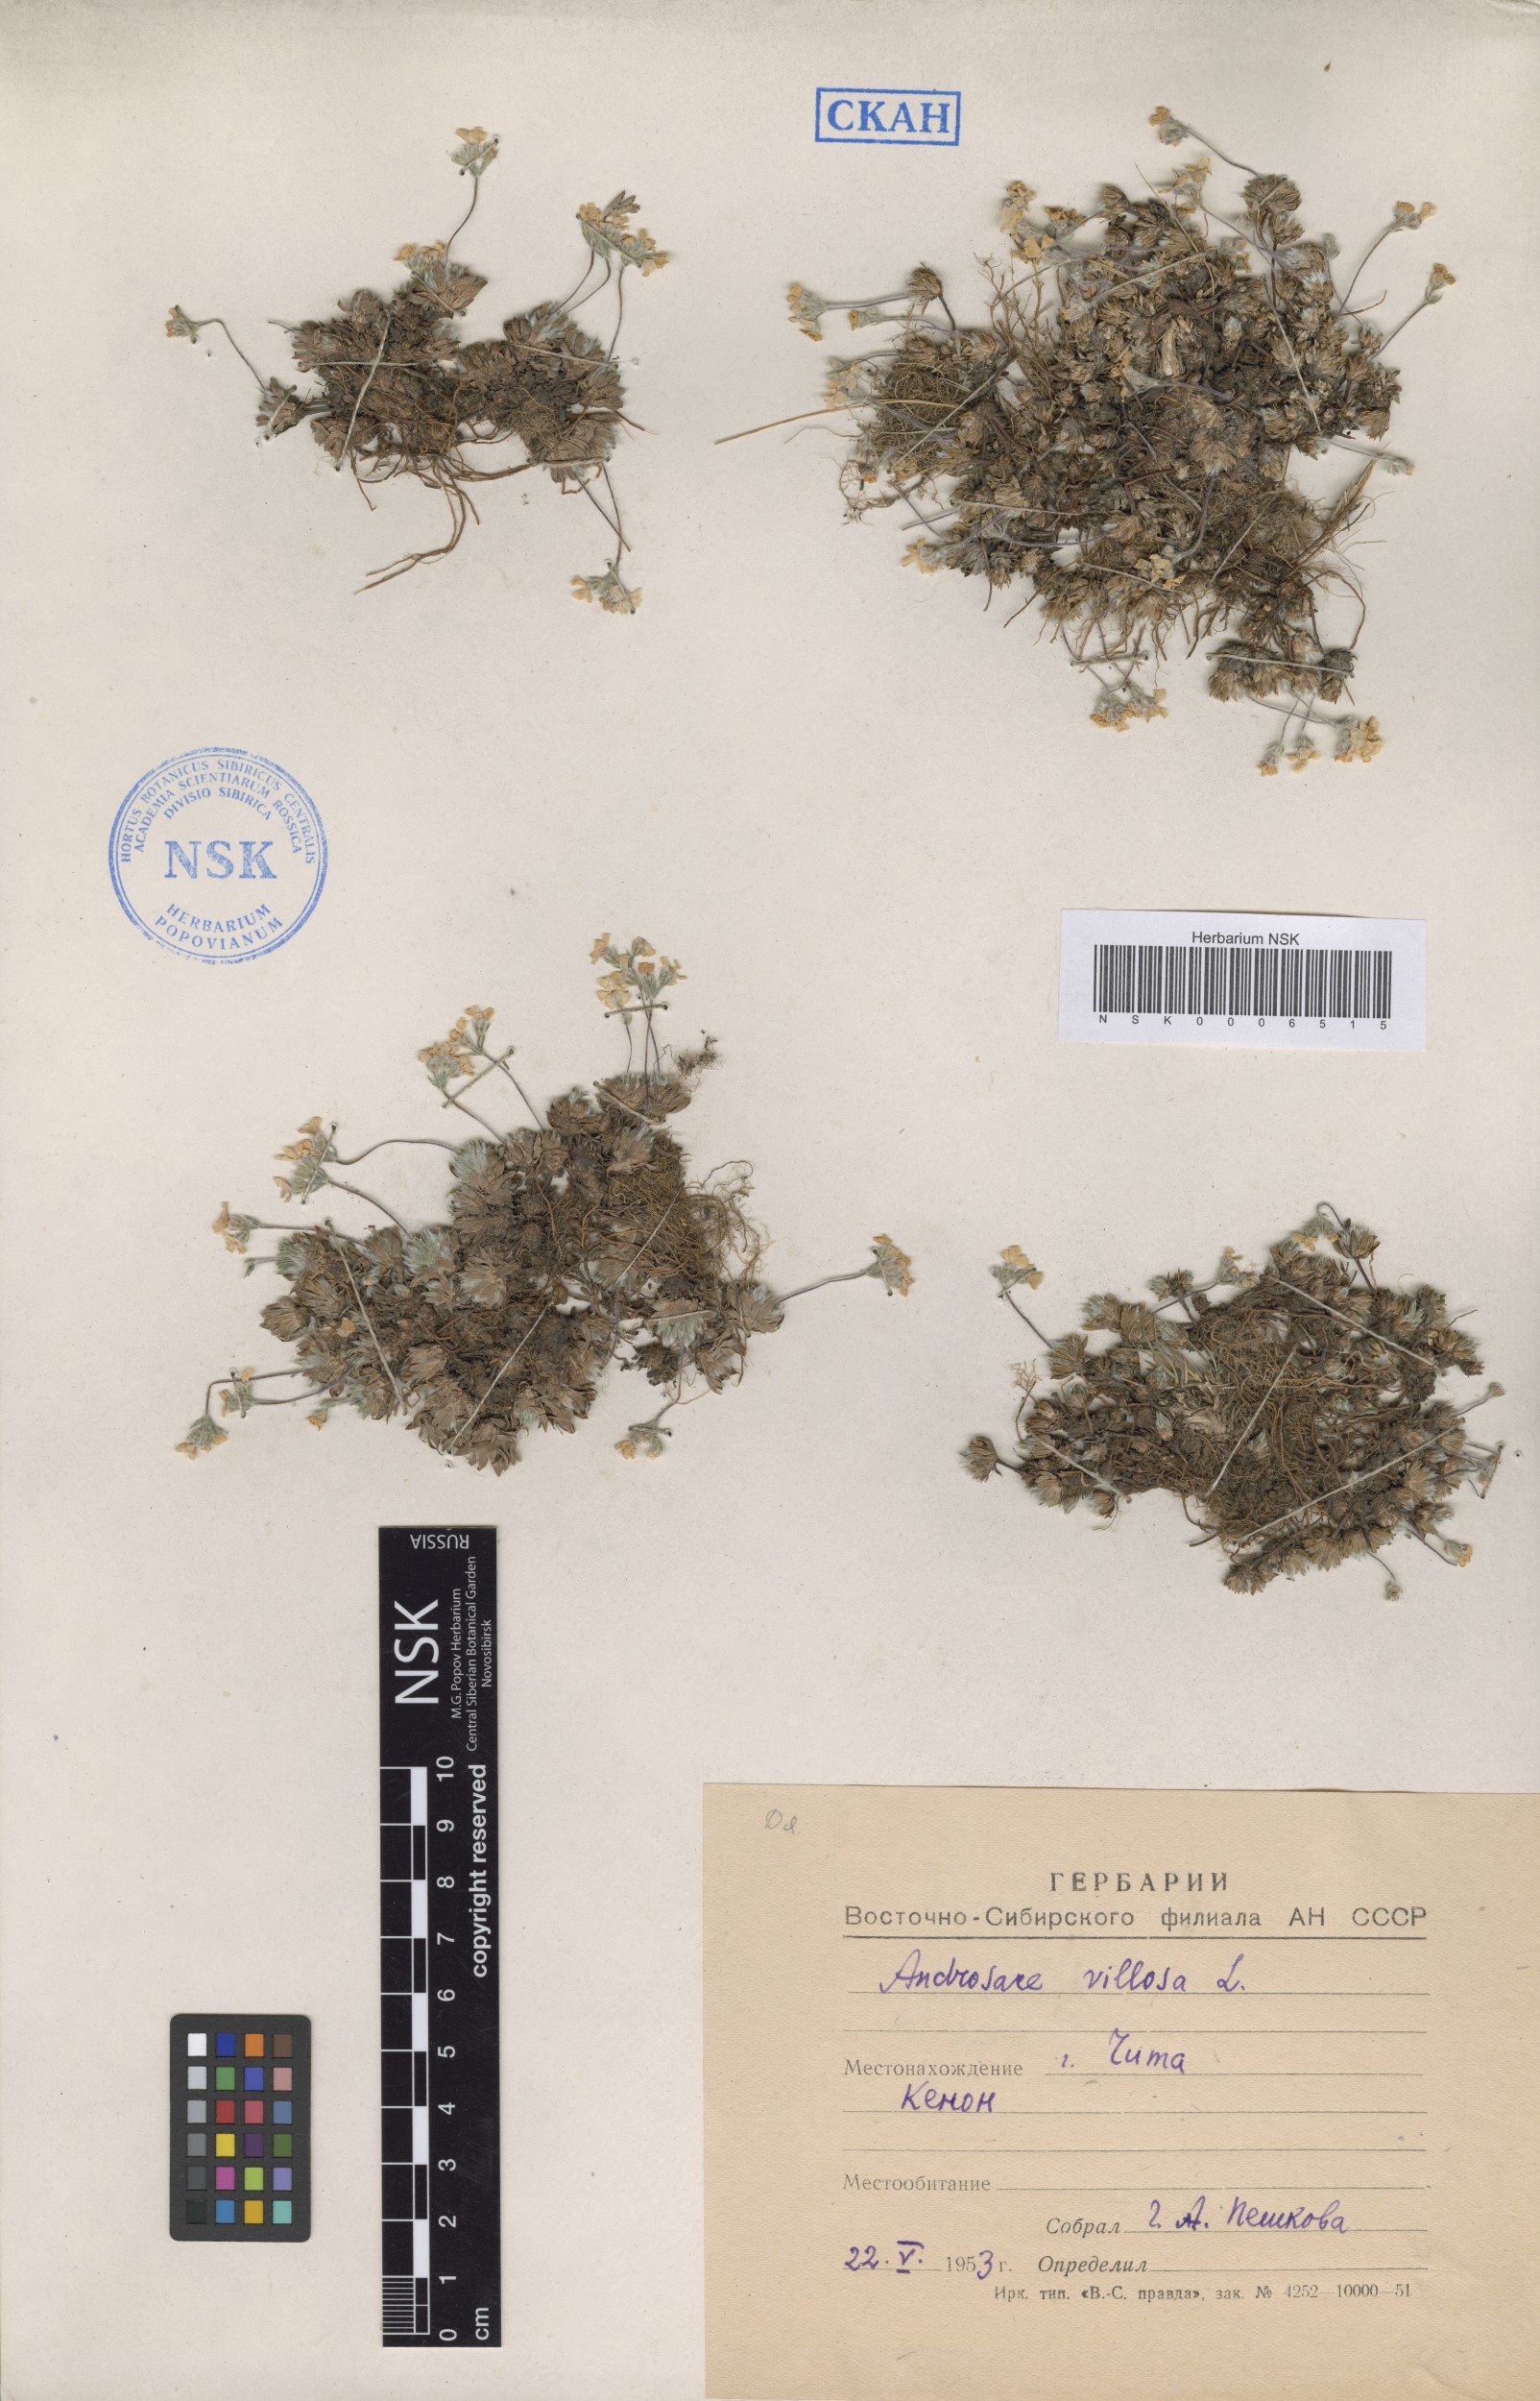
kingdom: Plantae
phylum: Tracheophyta
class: Magnoliopsida
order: Ericales
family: Primulaceae
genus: Androsace
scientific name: Androsace incana
